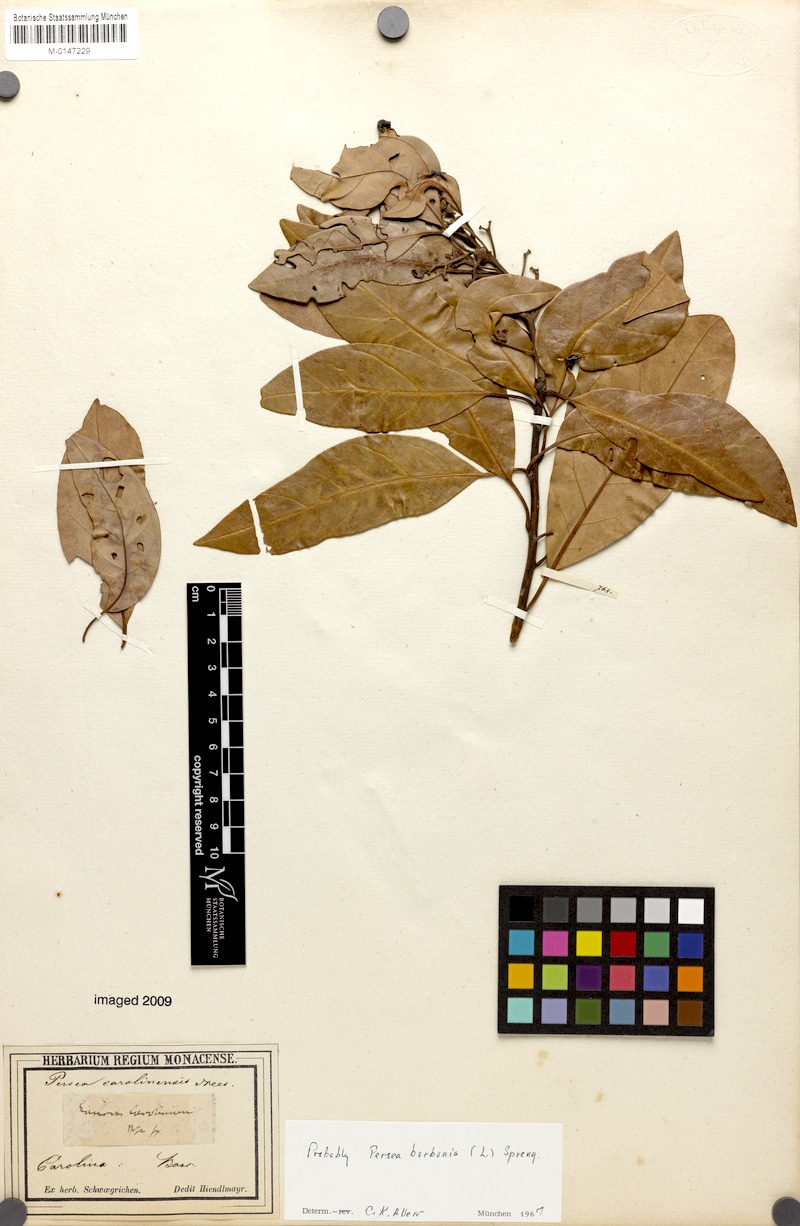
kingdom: Plantae
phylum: Tracheophyta
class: Magnoliopsida
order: Laurales
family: Lauraceae
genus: Persea
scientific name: Persea borbonia
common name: Redbay
